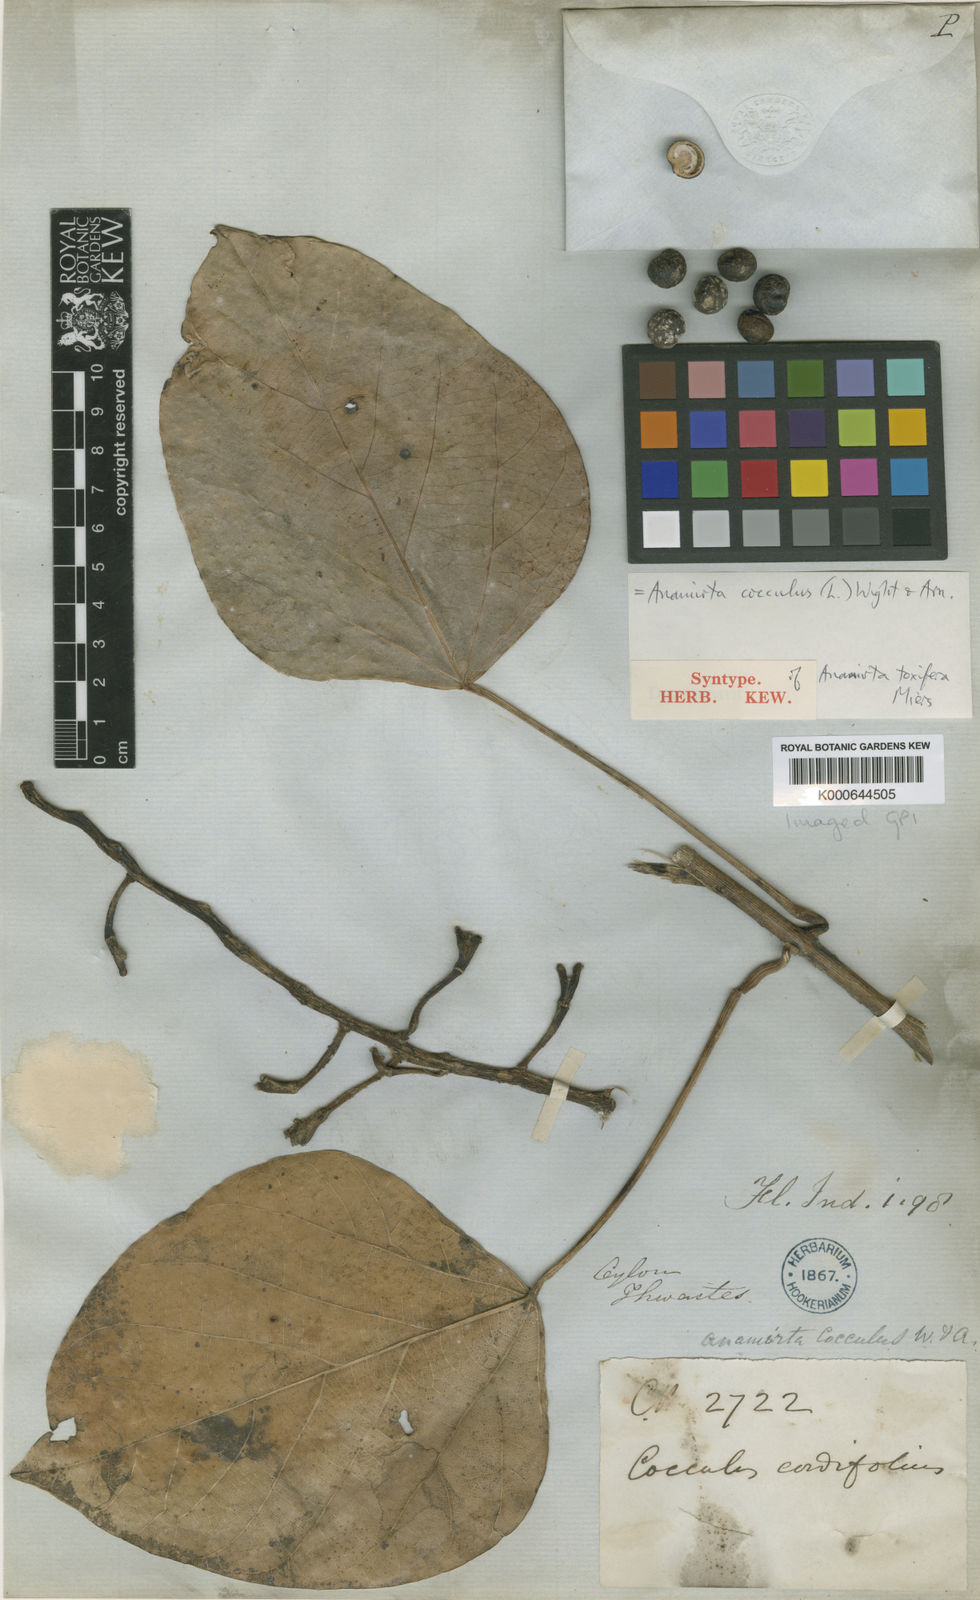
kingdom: Plantae
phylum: Tracheophyta
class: Magnoliopsida
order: Ranunculales
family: Menispermaceae
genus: Anamirta
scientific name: Anamirta cocculus
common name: Levantnut
